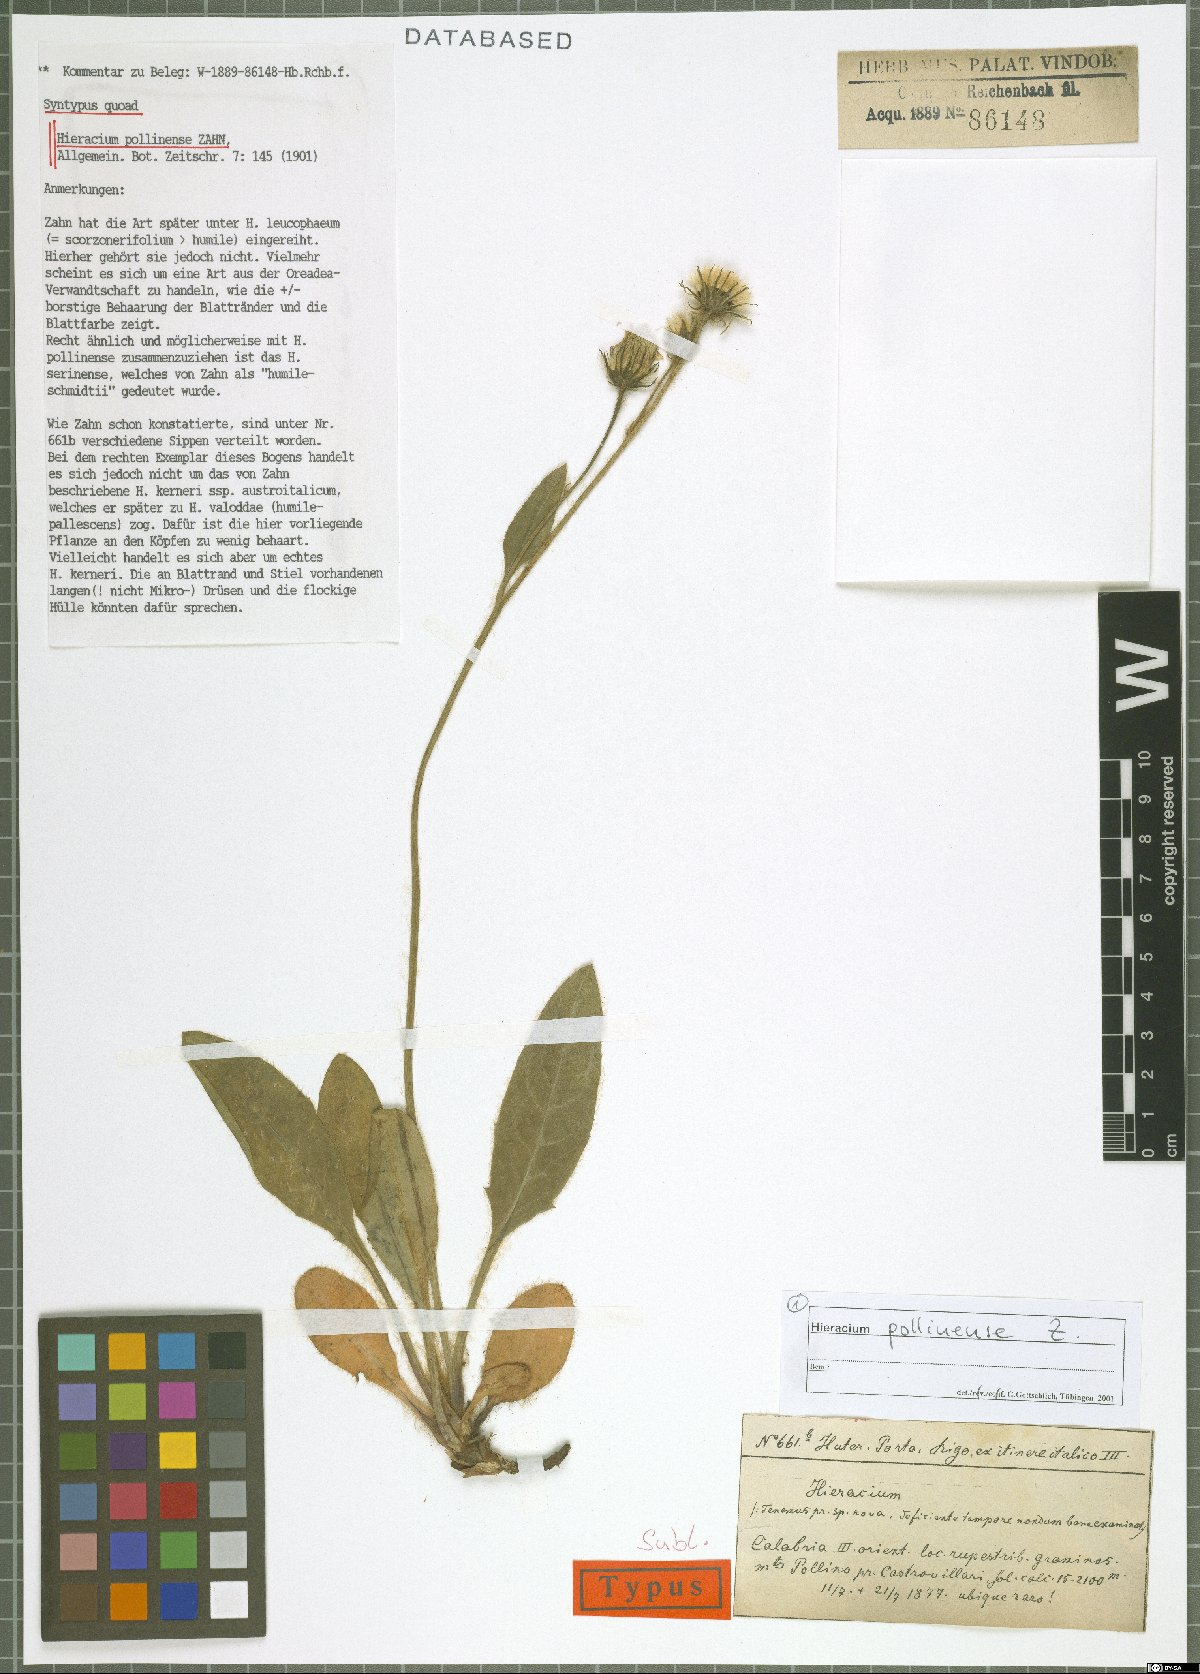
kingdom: Plantae
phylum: Tracheophyta
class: Magnoliopsida
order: Asterales
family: Asteraceae
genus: Hieracium
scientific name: Hieracium pollinense
